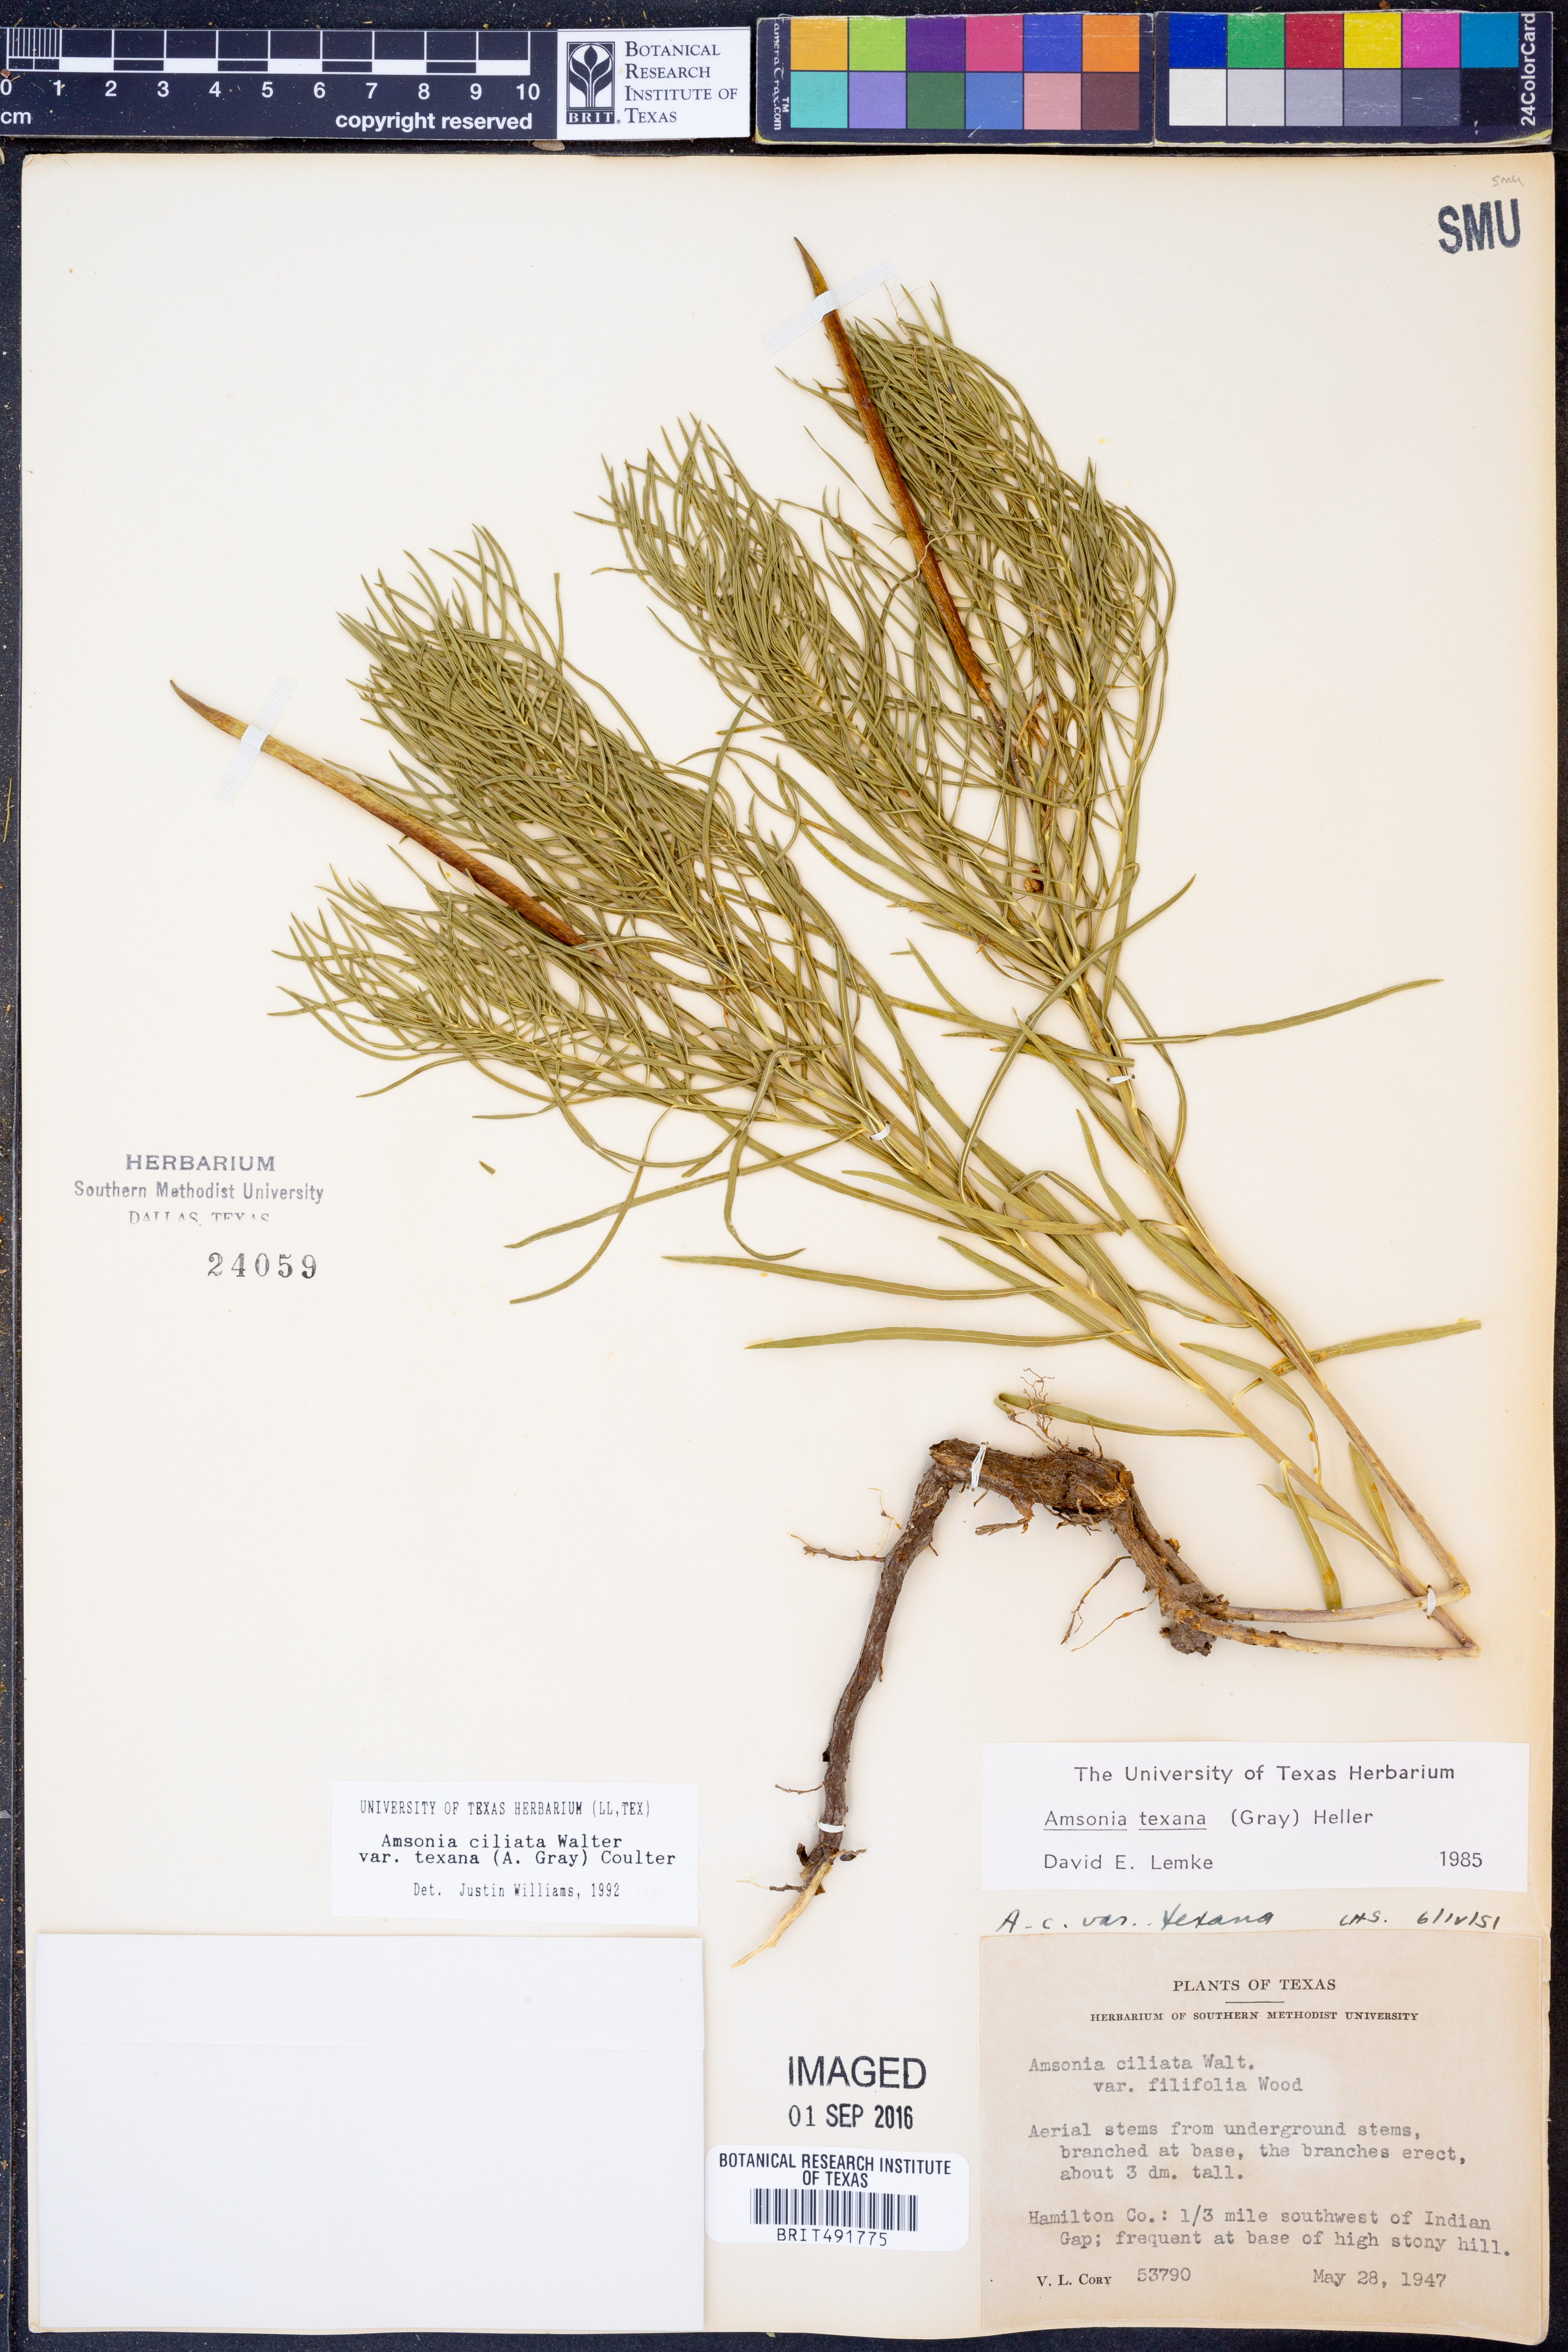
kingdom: Plantae
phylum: Tracheophyta
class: Magnoliopsida
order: Gentianales
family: Apocynaceae
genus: Amsonia
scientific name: Amsonia ciliata
